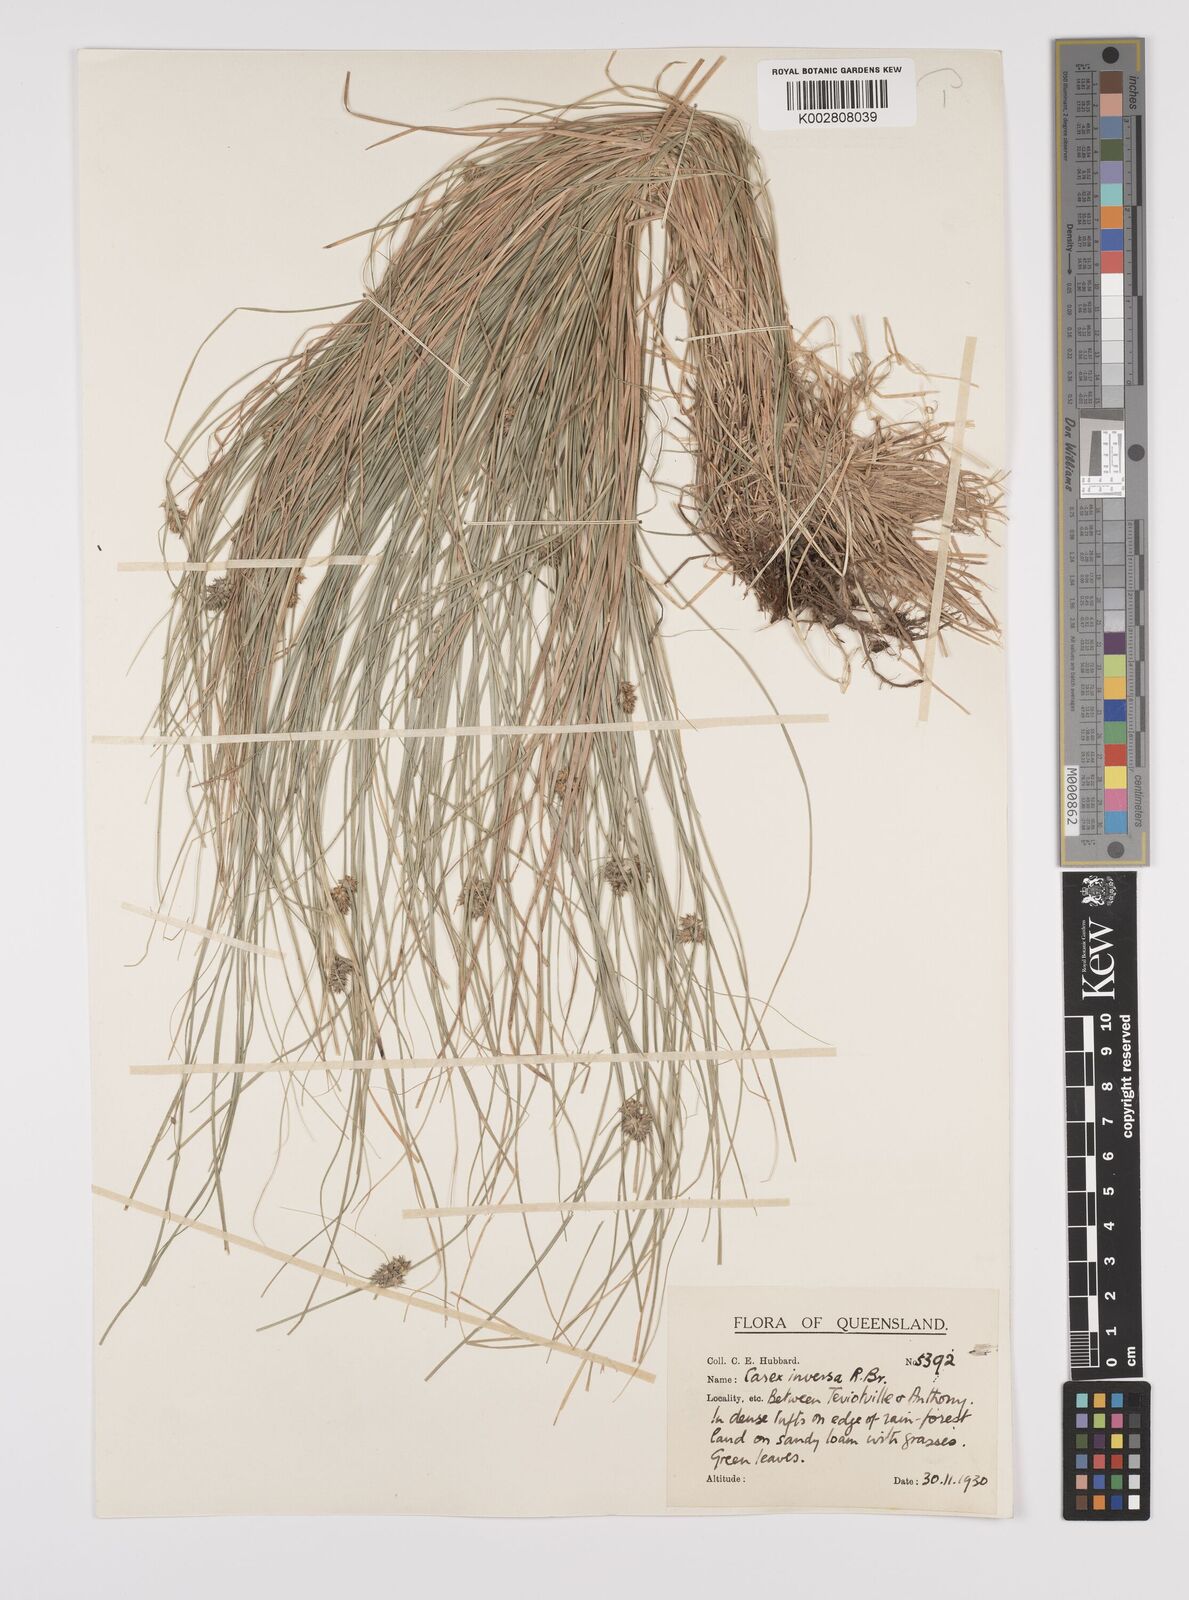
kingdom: Plantae
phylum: Tracheophyta
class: Liliopsida
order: Poales
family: Cyperaceae
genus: Carex
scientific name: Carex inversa
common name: Knob sedge
